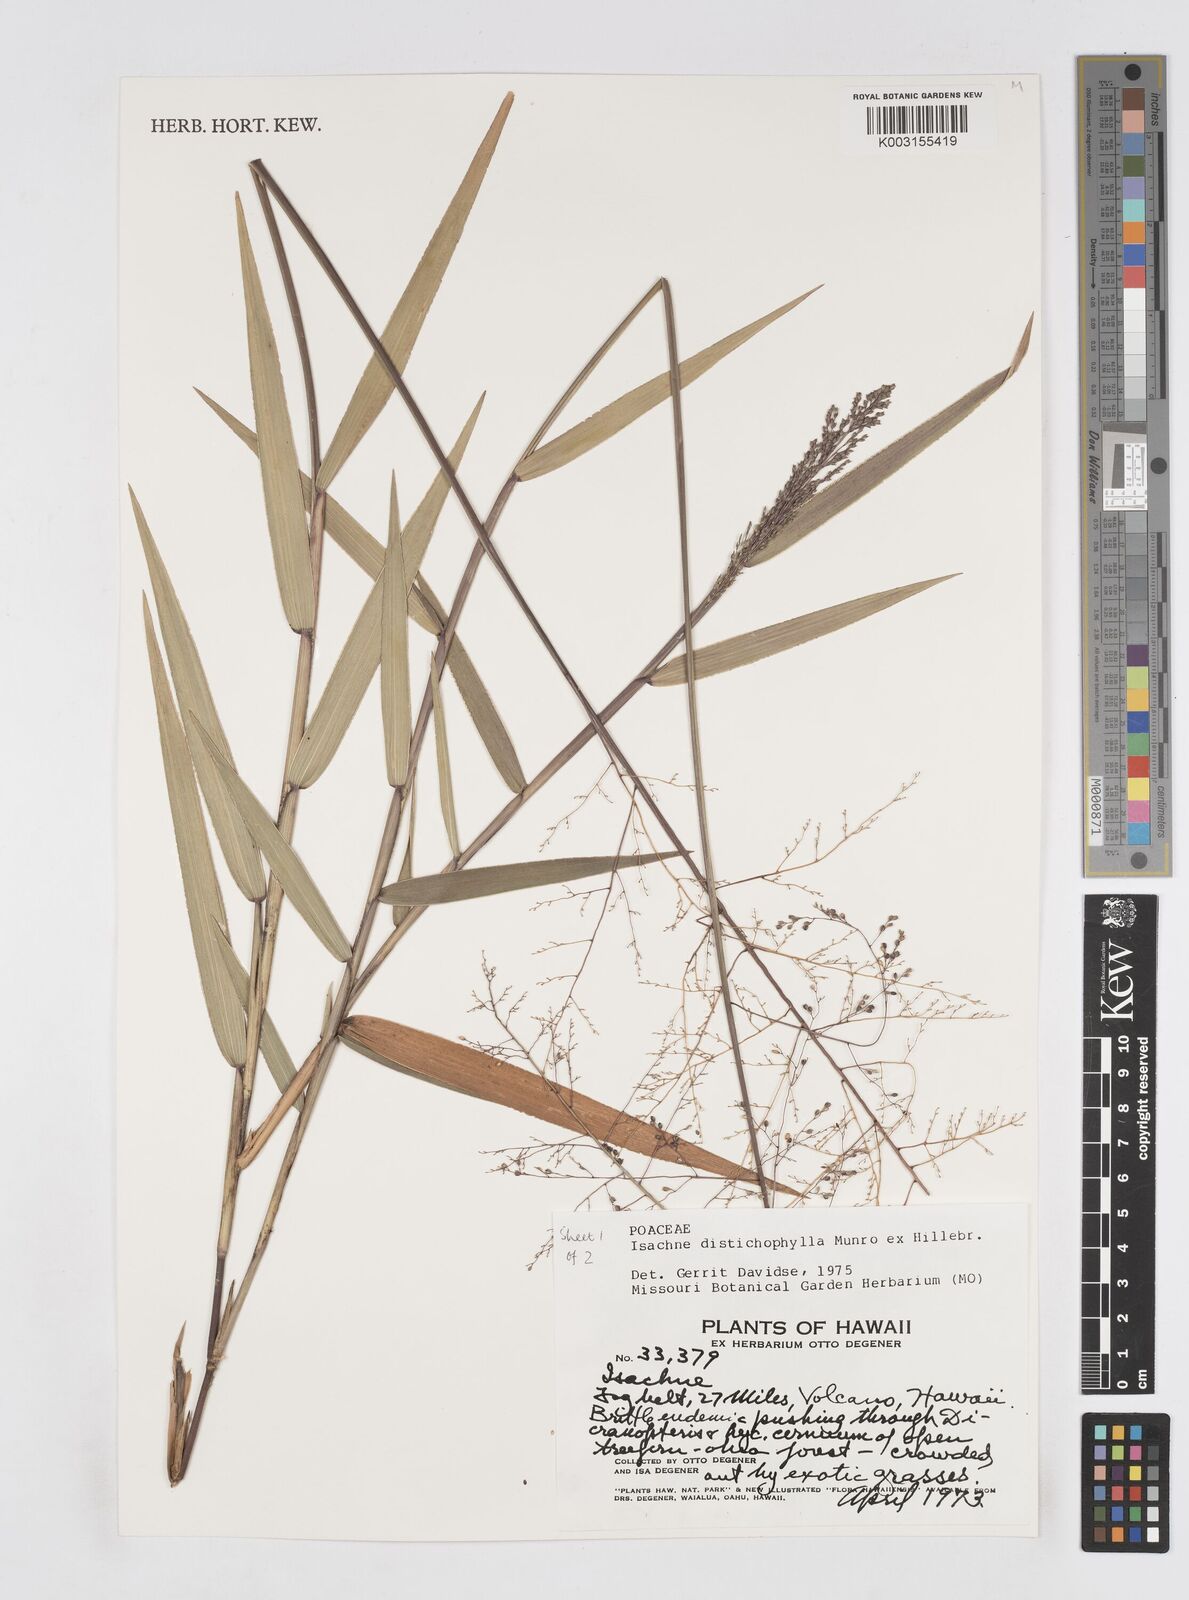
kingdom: Plantae
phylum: Tracheophyta
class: Liliopsida
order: Poales
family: Poaceae
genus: Isachne
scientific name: Isachne distichophylla
